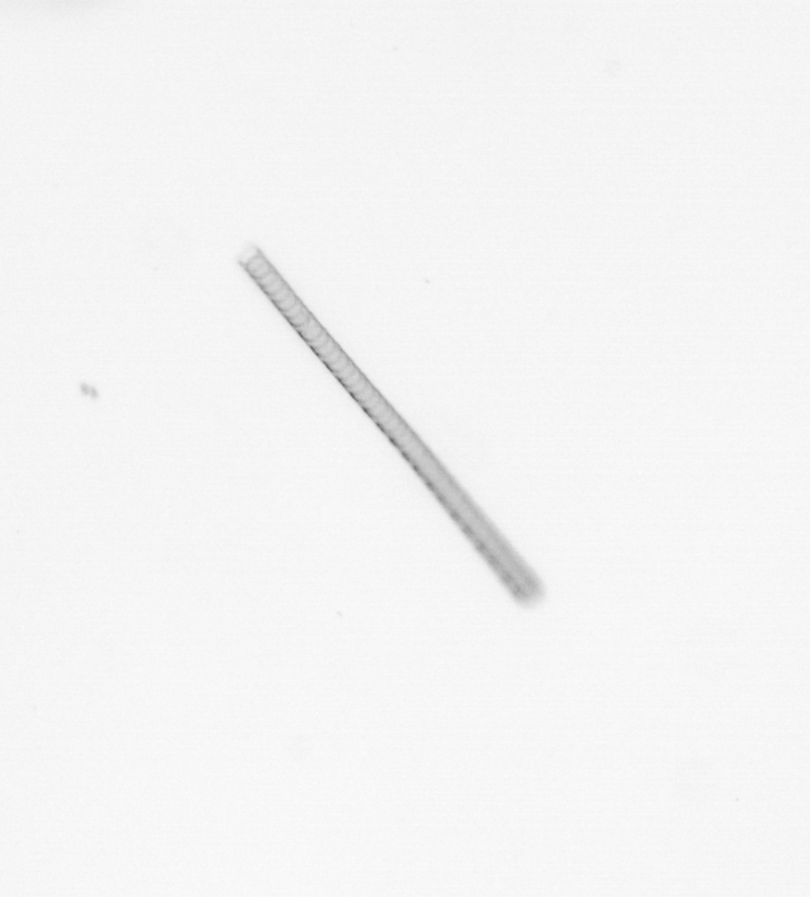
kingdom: Chromista
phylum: Ochrophyta
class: Bacillariophyceae
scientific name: Bacillariophyceae
